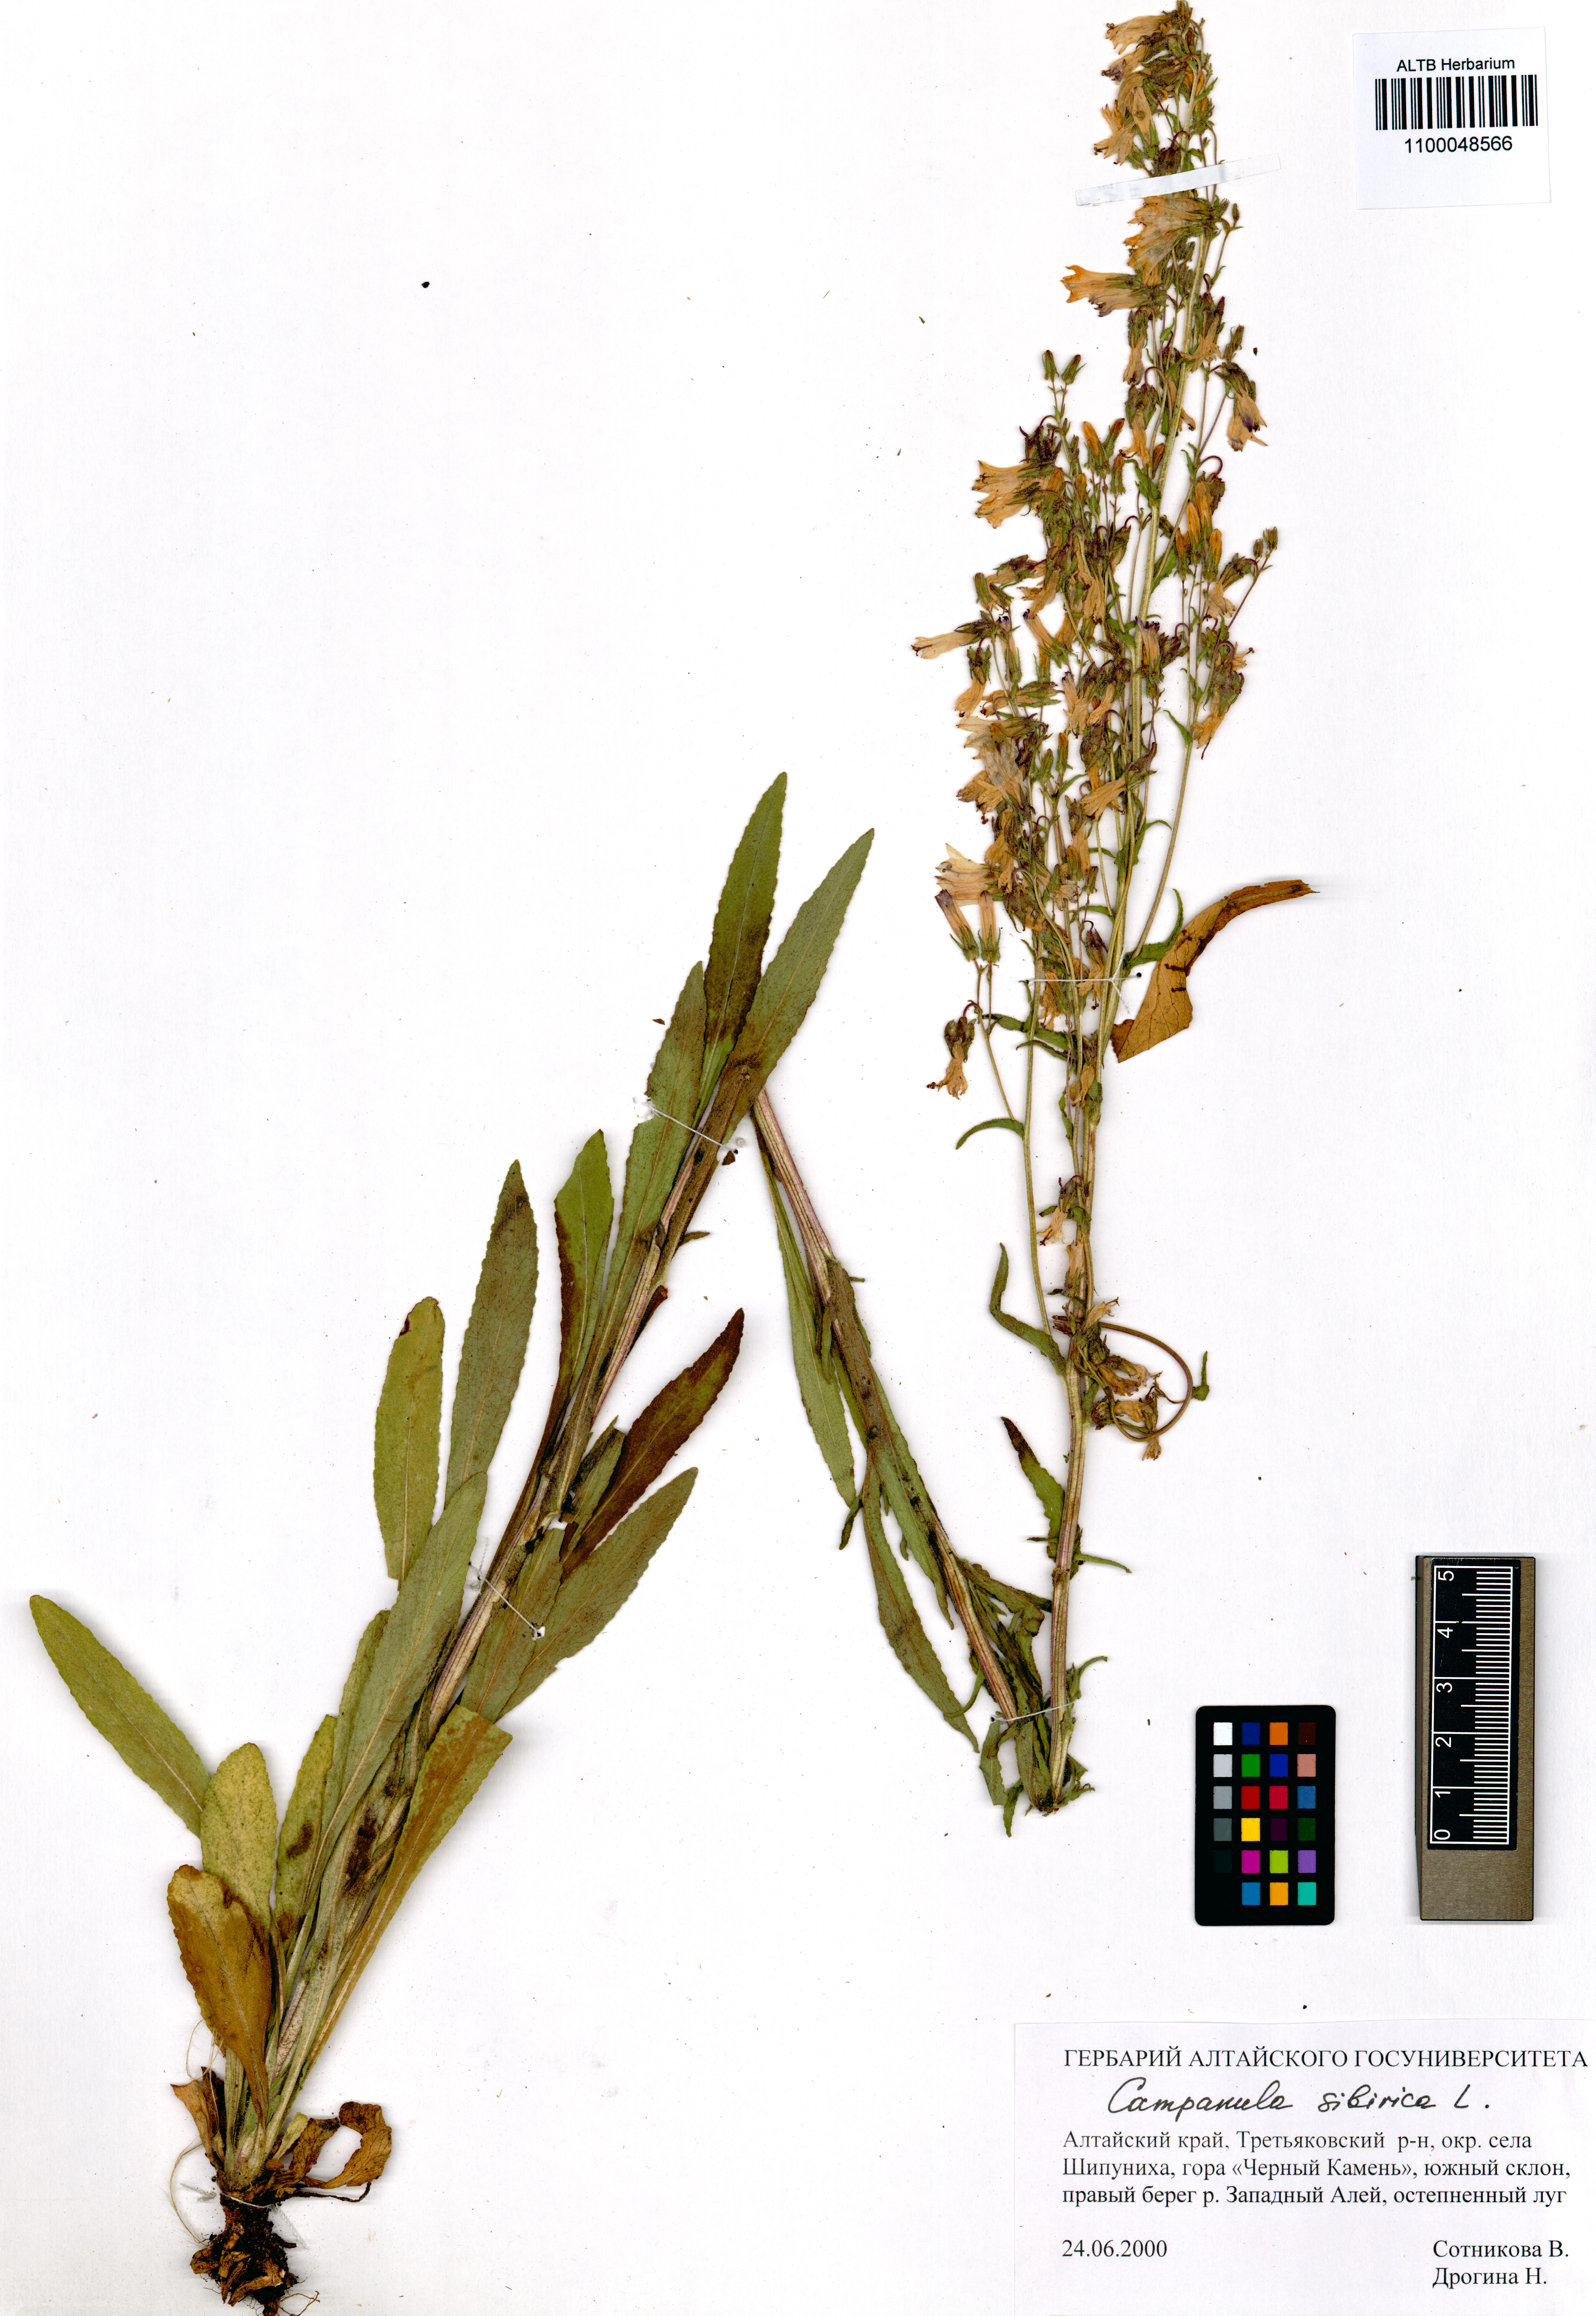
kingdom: Plantae
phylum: Tracheophyta
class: Magnoliopsida
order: Asterales
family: Campanulaceae
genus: Campanula
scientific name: Campanula sibirica
